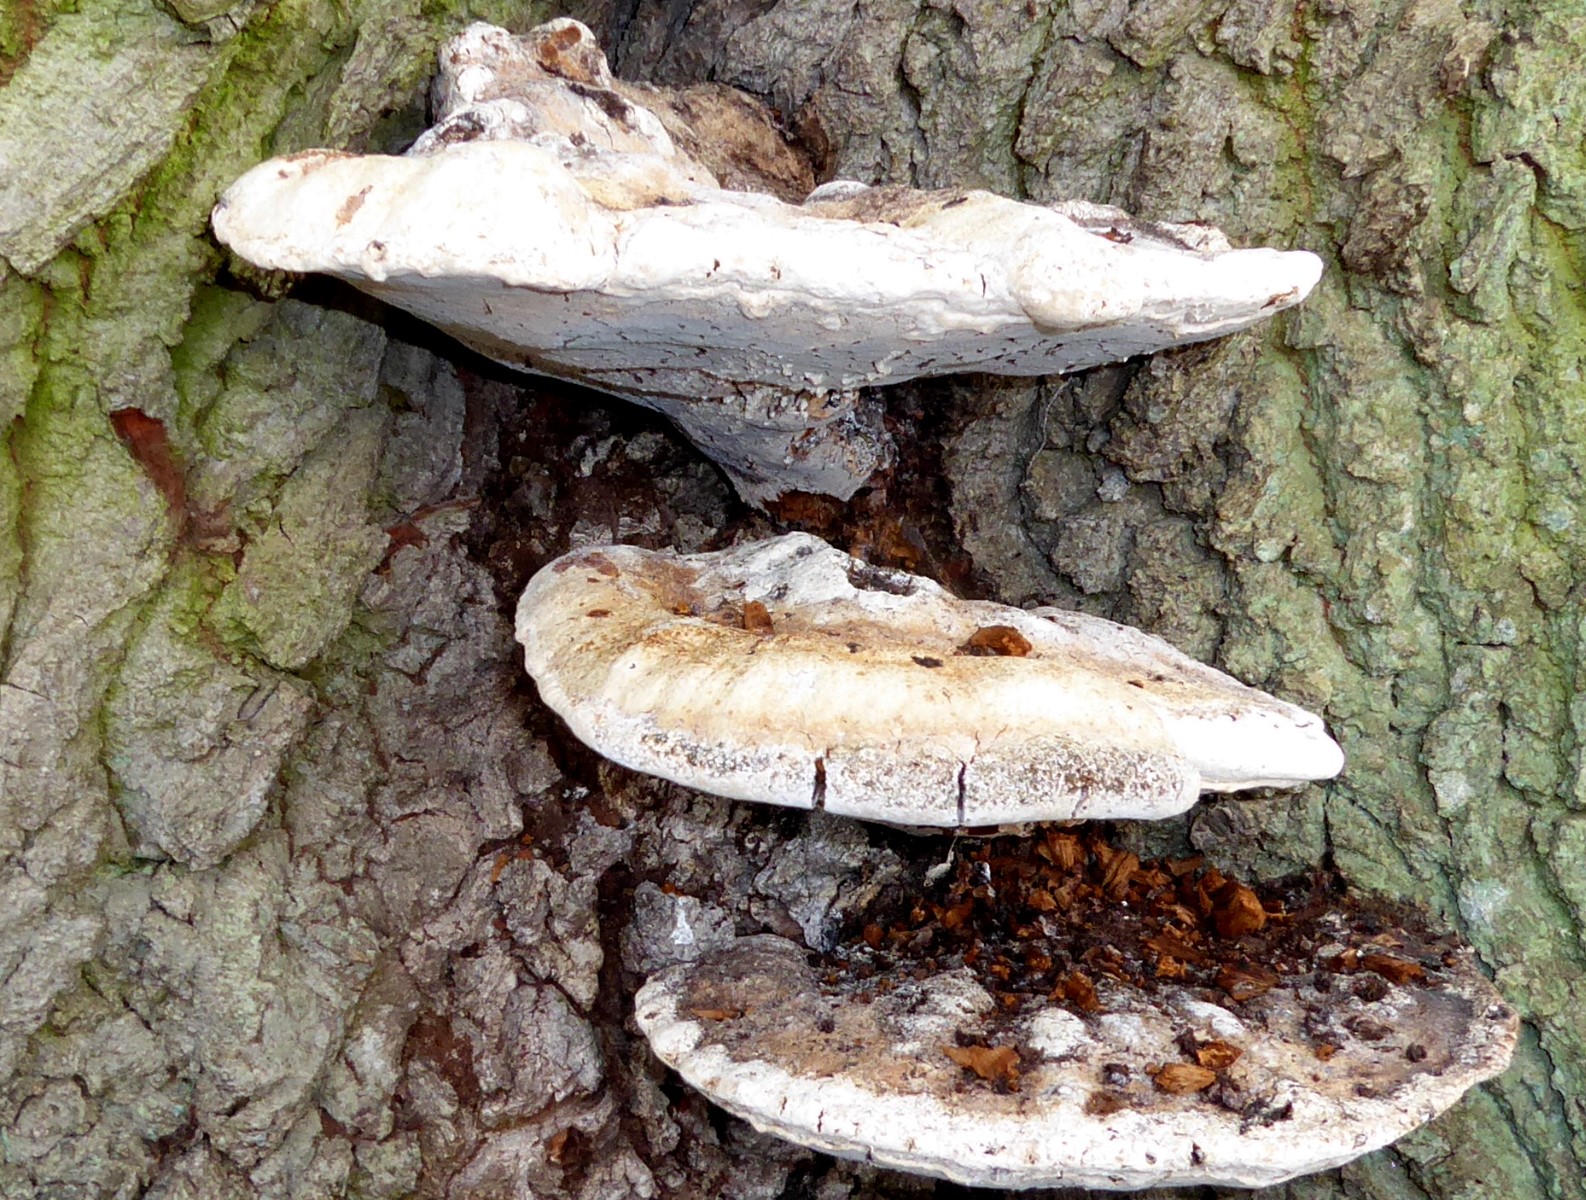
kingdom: Fungi
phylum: Basidiomycota
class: Agaricomycetes
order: Hymenochaetales
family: Hymenochaetaceae
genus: Pseudoinonotus
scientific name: Pseudoinonotus dryadeus
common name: ege-spejlporesvamp
